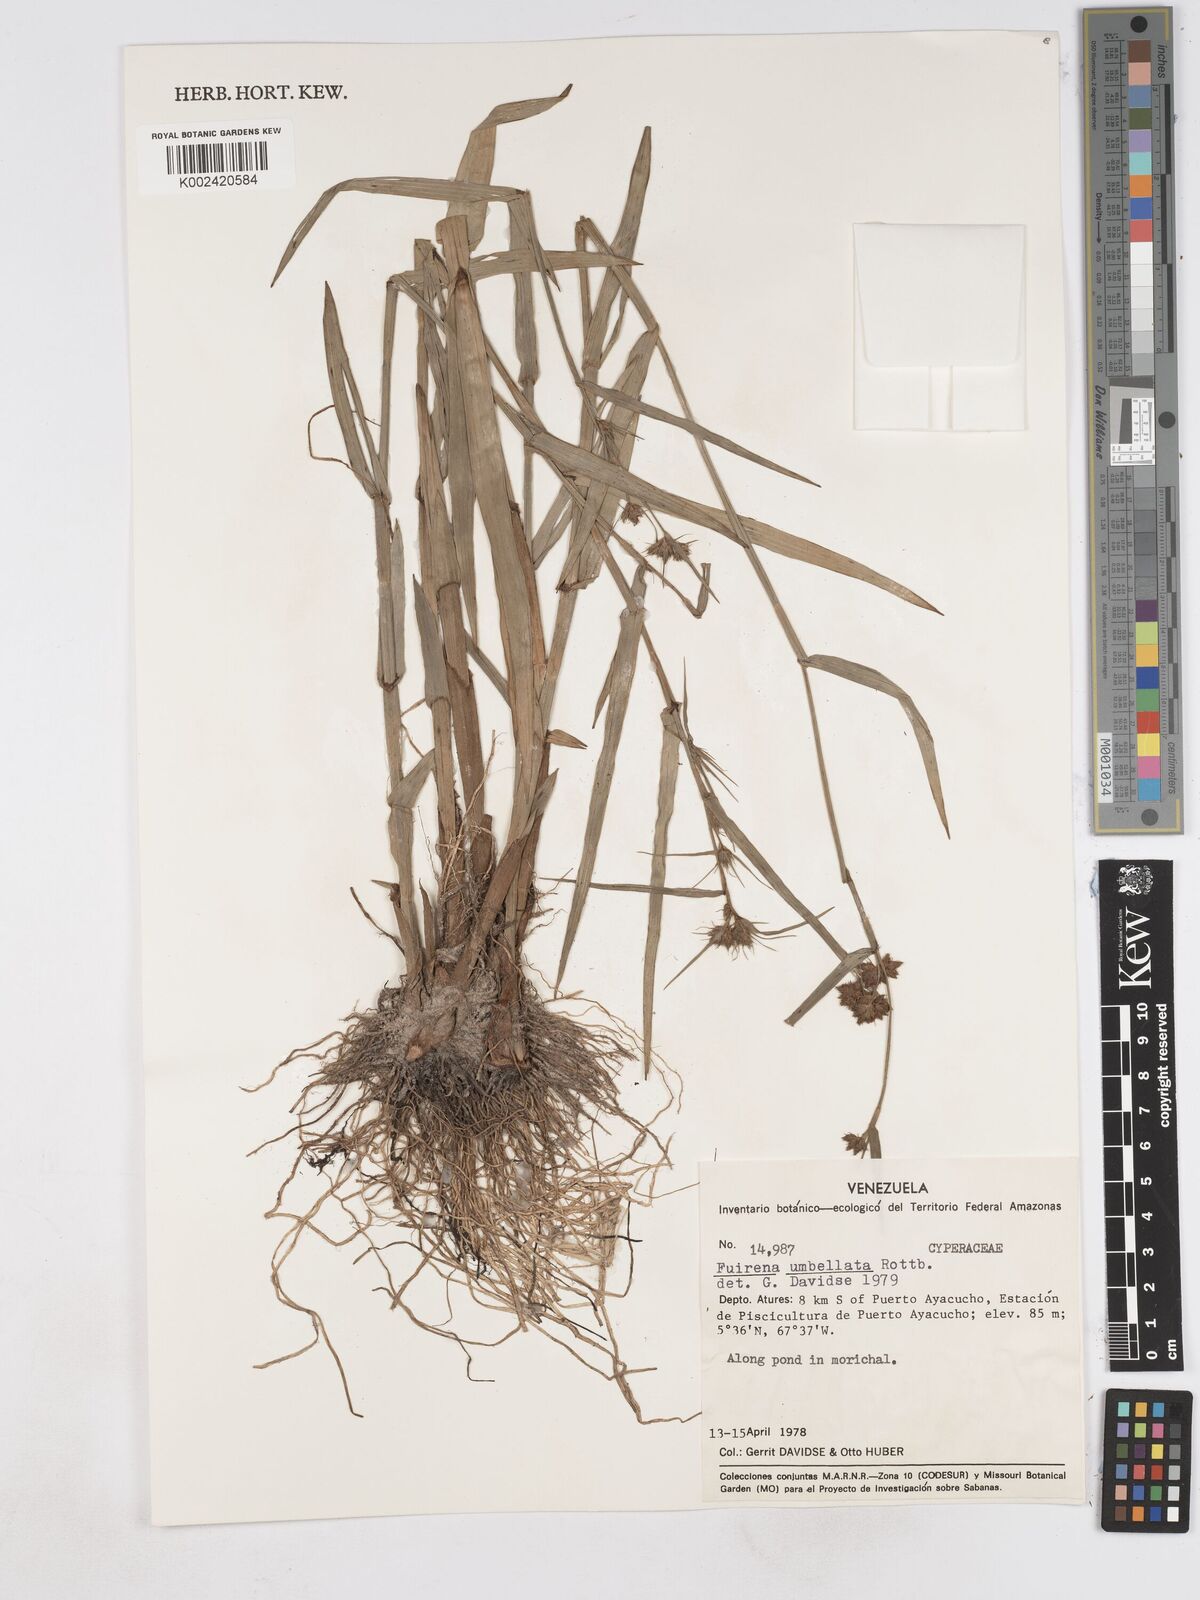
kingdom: Plantae
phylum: Tracheophyta
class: Liliopsida
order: Poales
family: Cyperaceae
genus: Fuirena
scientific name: Fuirena umbellata
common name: Yefen
